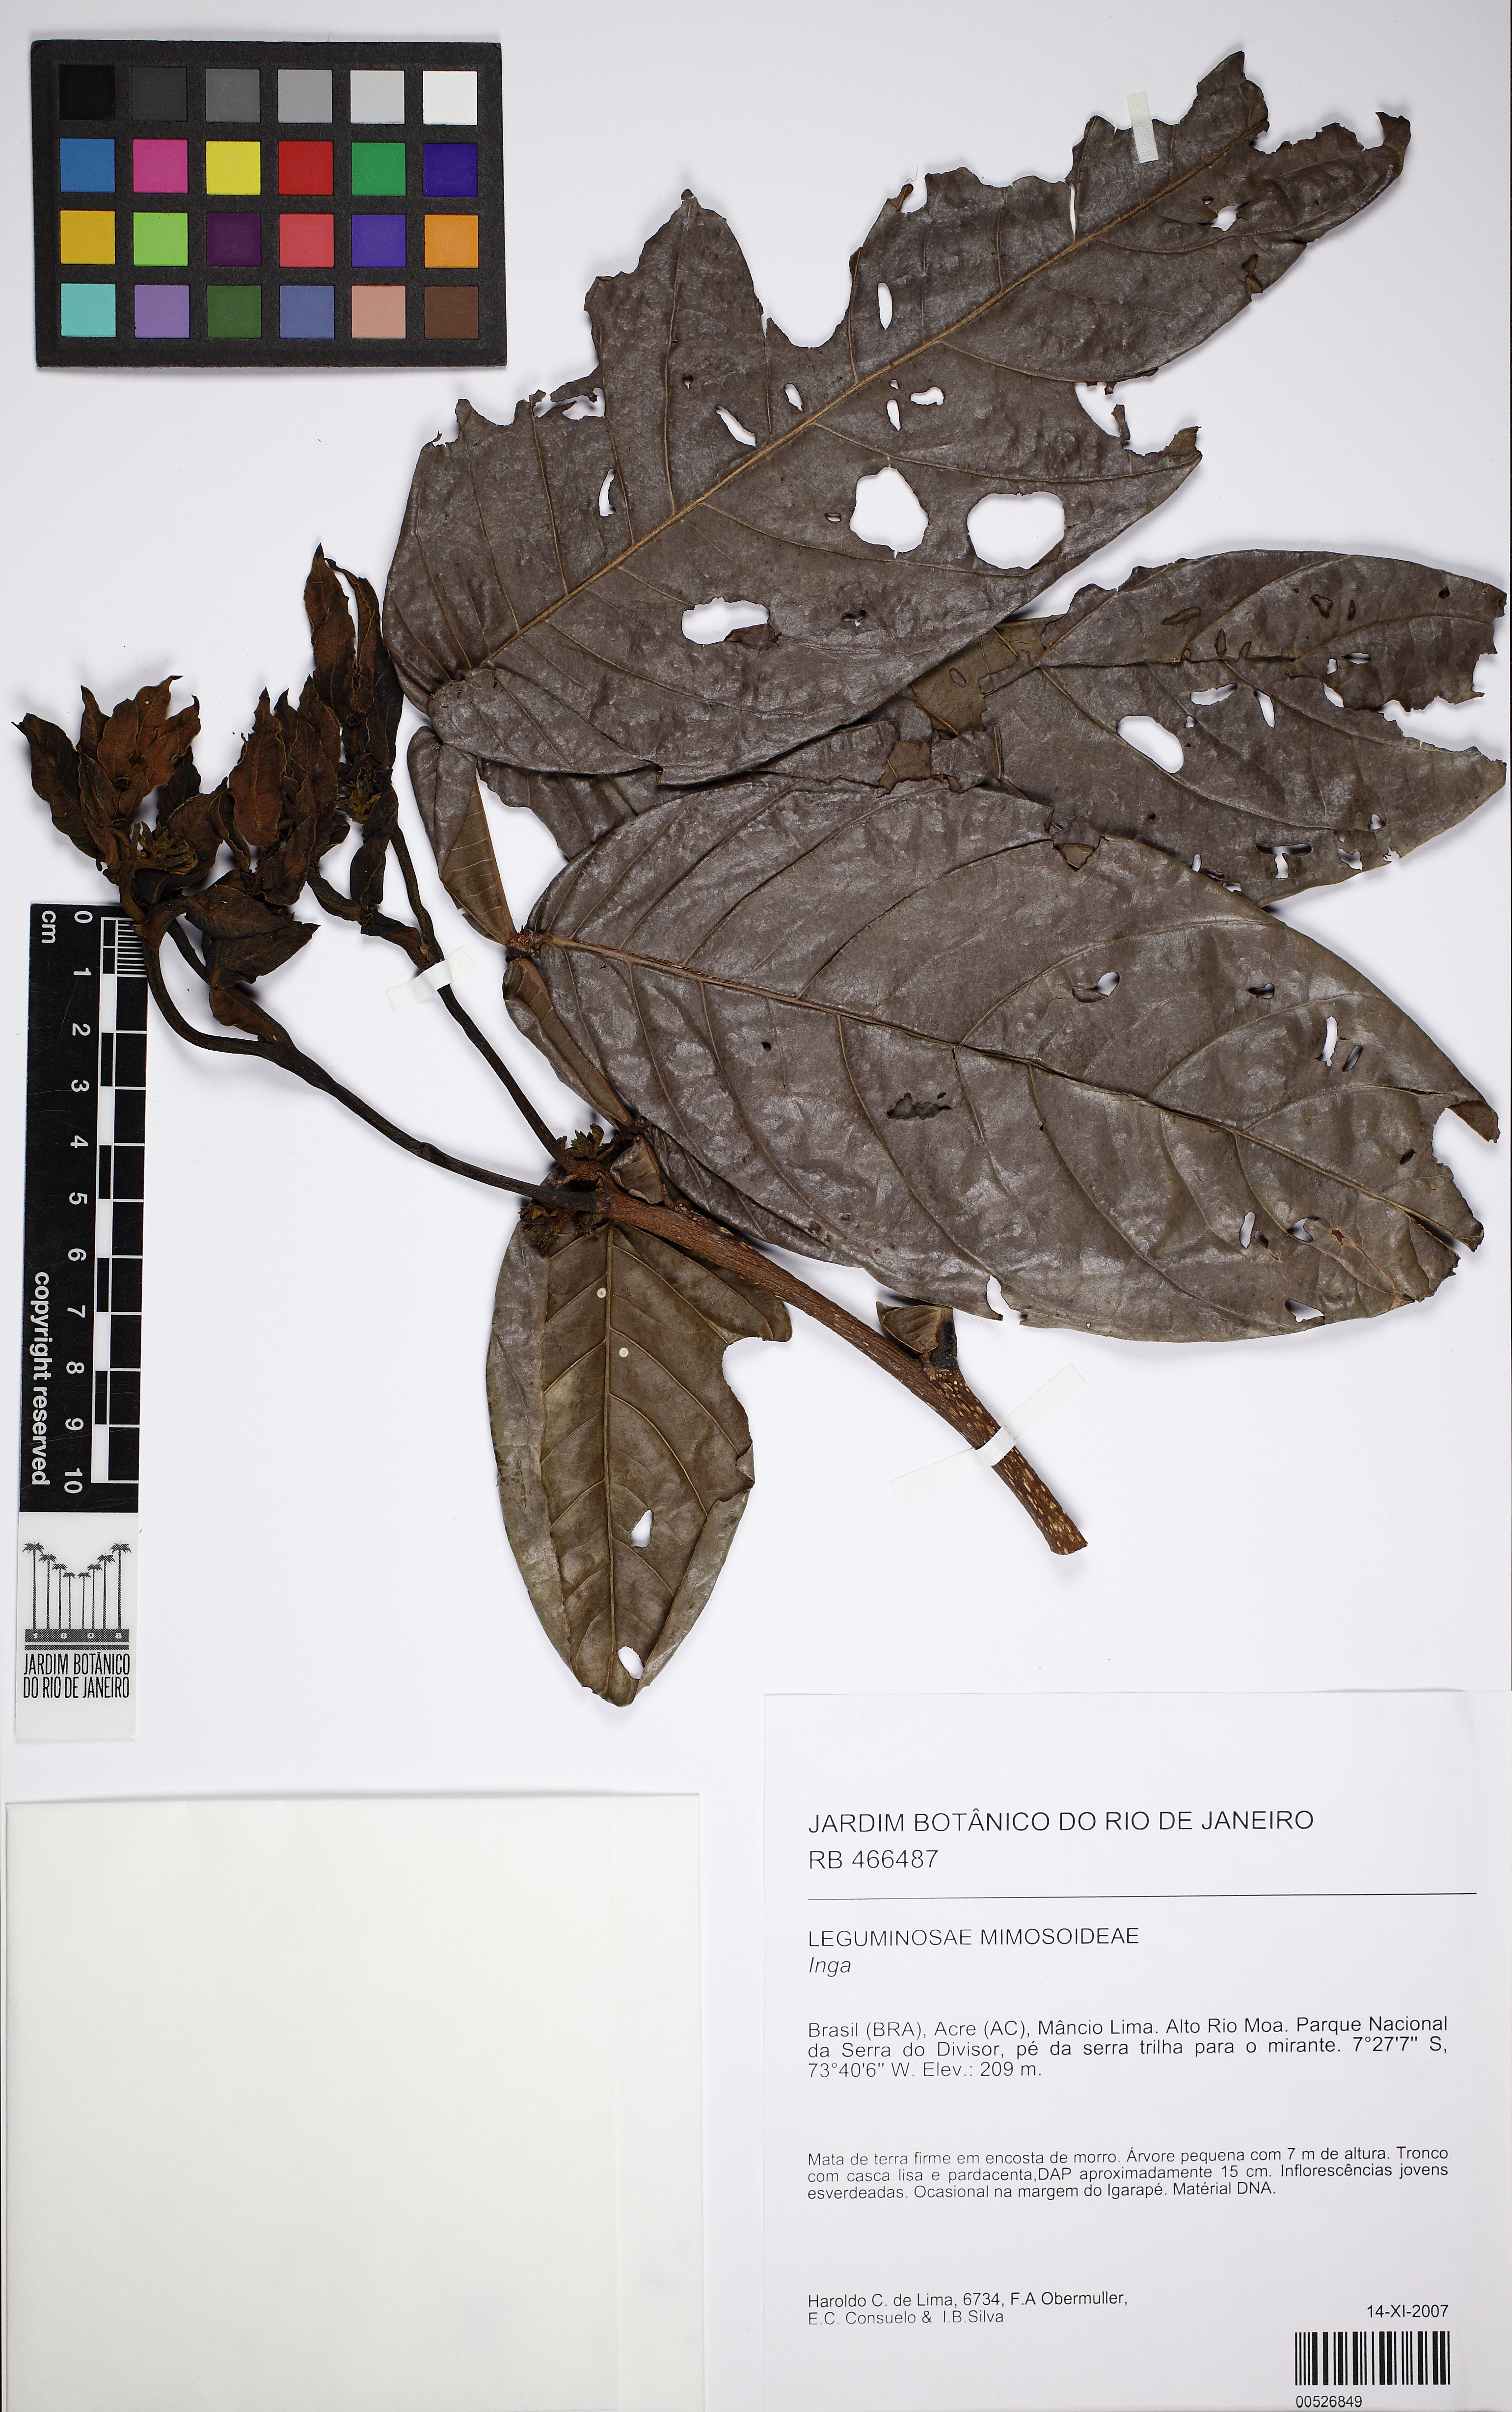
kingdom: Plantae
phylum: Tracheophyta
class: Magnoliopsida
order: Fabales
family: Fabaceae
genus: Inga
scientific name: Inga
